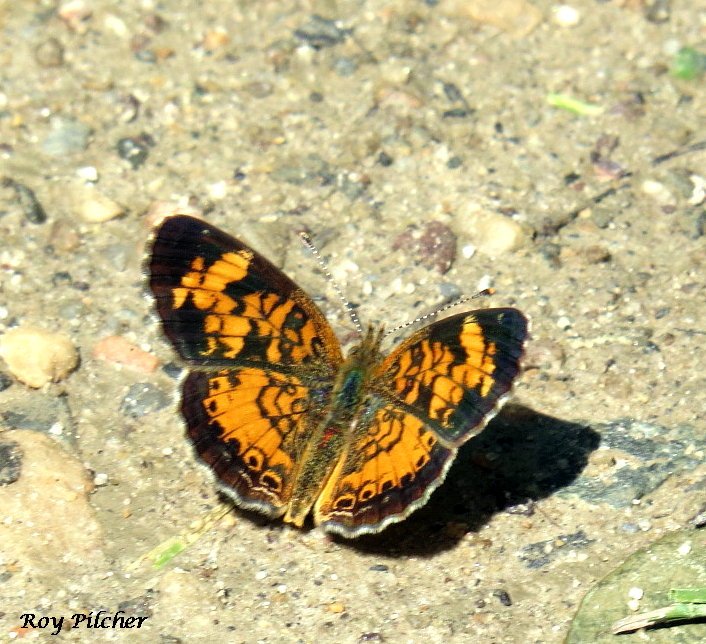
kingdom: Animalia
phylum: Arthropoda
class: Insecta
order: Lepidoptera
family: Nymphalidae
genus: Phyciodes
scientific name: Phyciodes tharos
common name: Northern Crescent
